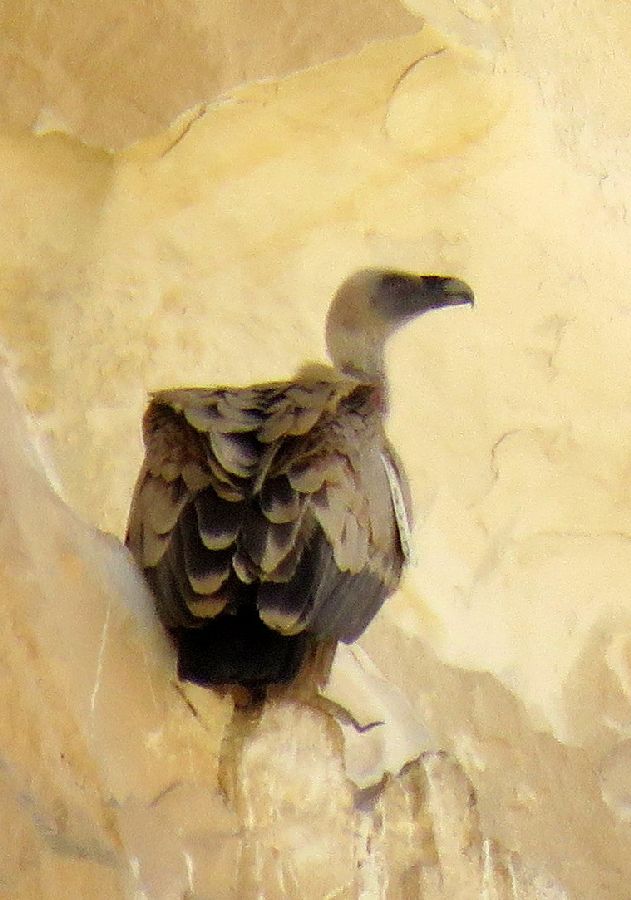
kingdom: Animalia
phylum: Chordata
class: Aves
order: Accipitriformes
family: Accipitridae
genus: Gyps
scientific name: Gyps fulvus
